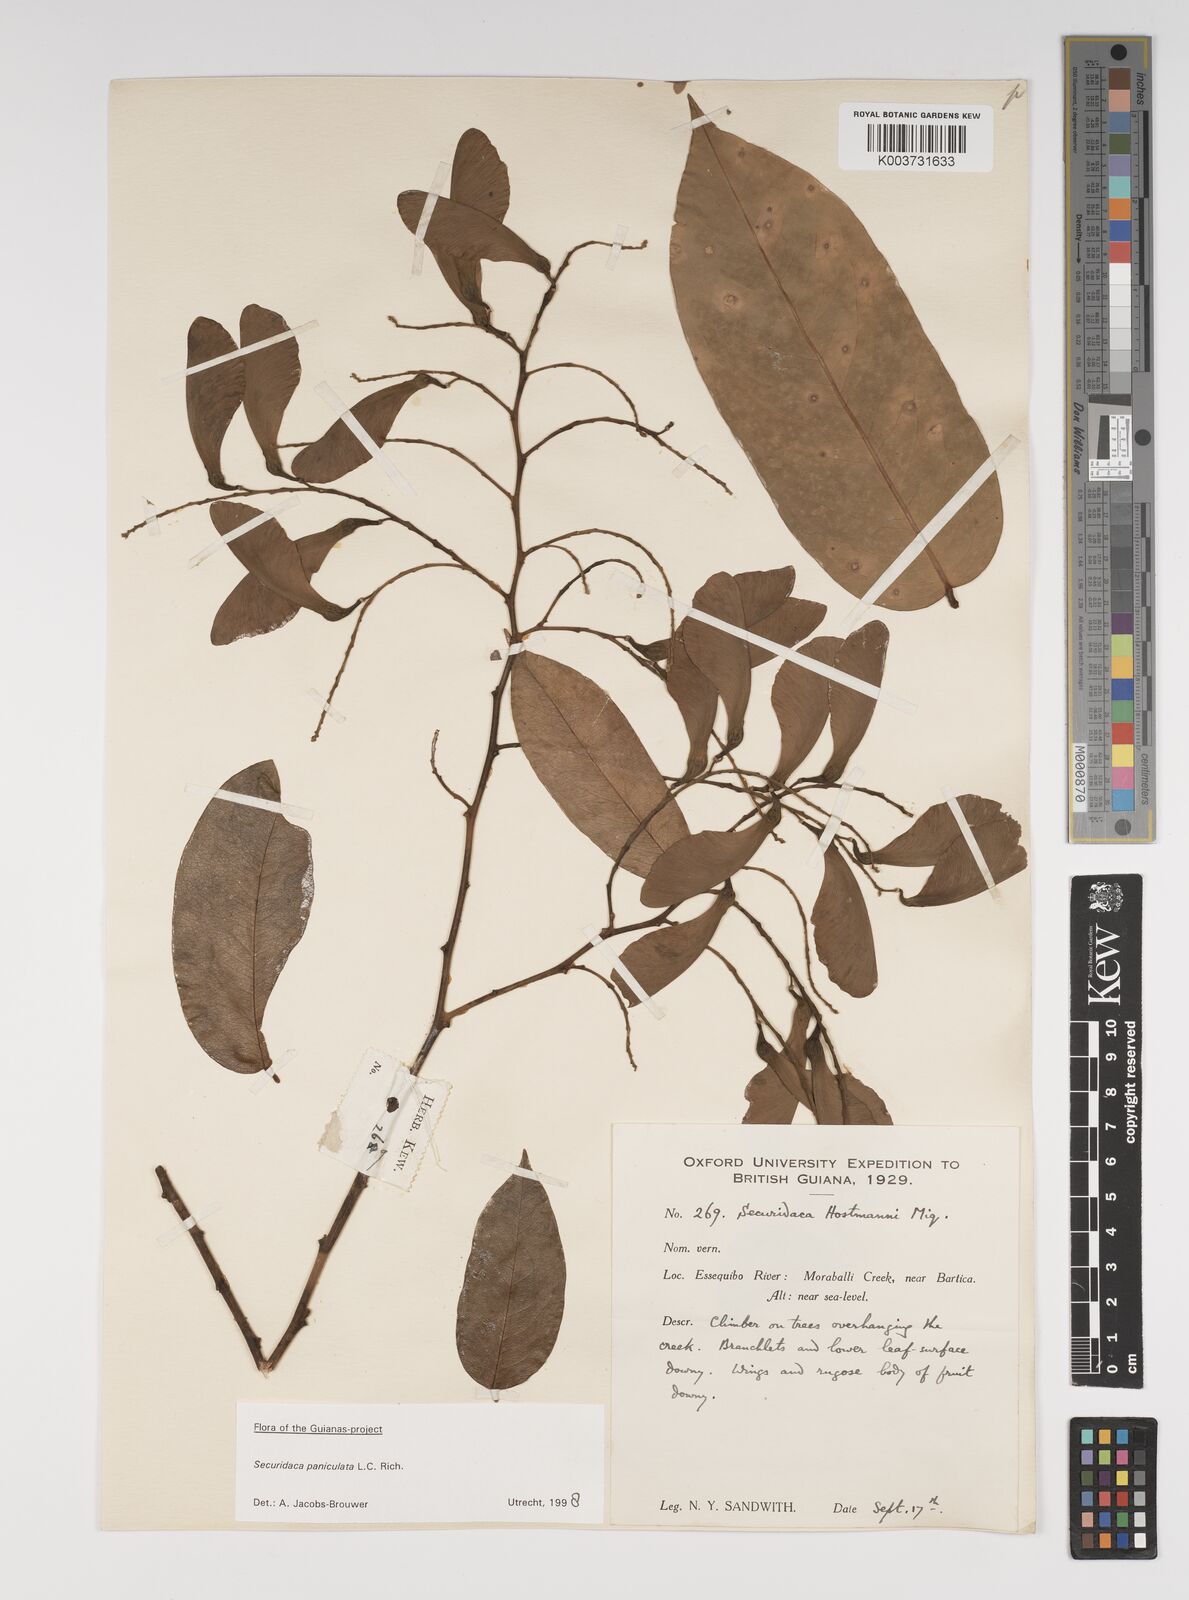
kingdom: Plantae
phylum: Tracheophyta
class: Magnoliopsida
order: Fabales
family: Polygalaceae
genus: Securidaca
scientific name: Securidaca paniculata
